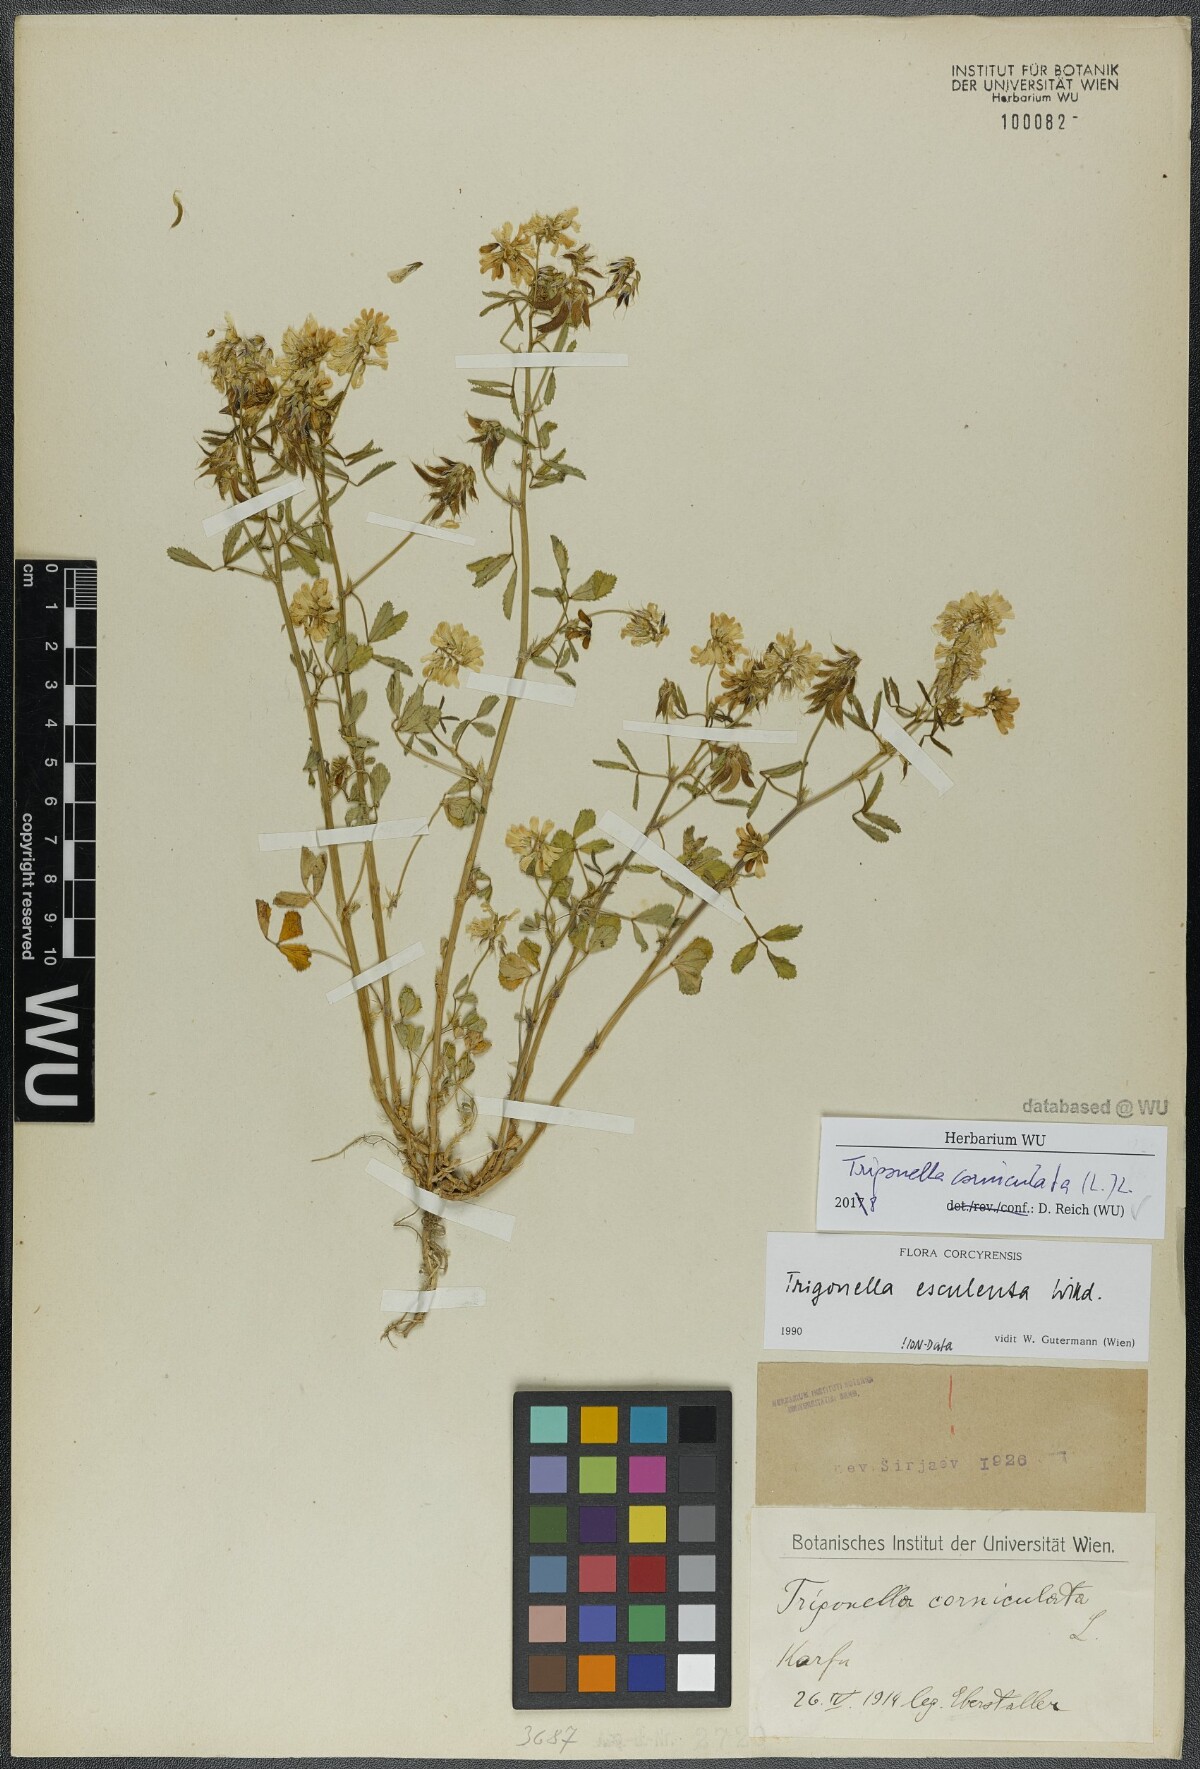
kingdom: Plantae
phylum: Tracheophyta
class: Magnoliopsida
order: Fabales
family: Fabaceae
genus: Trigonella
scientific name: Trigonella balansae
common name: Sickle-fruited fenugreek
